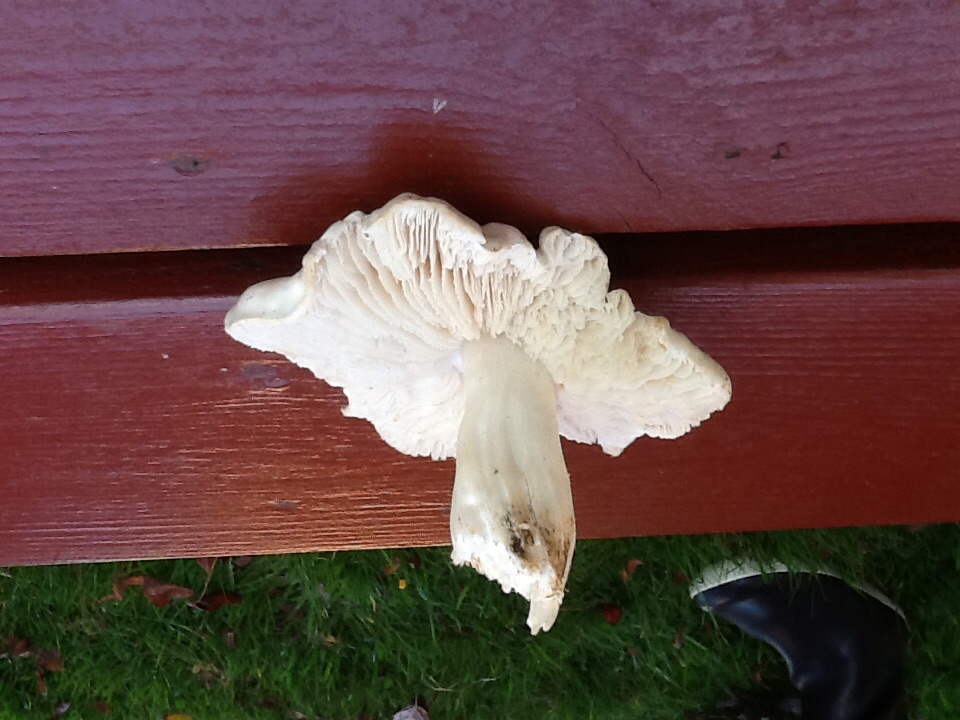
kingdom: Fungi
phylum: Basidiomycota
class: Agaricomycetes
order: Agaricales
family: Tricholomataceae
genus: Tricholoma
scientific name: Tricholoma columbetta
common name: silke-ridderhat
